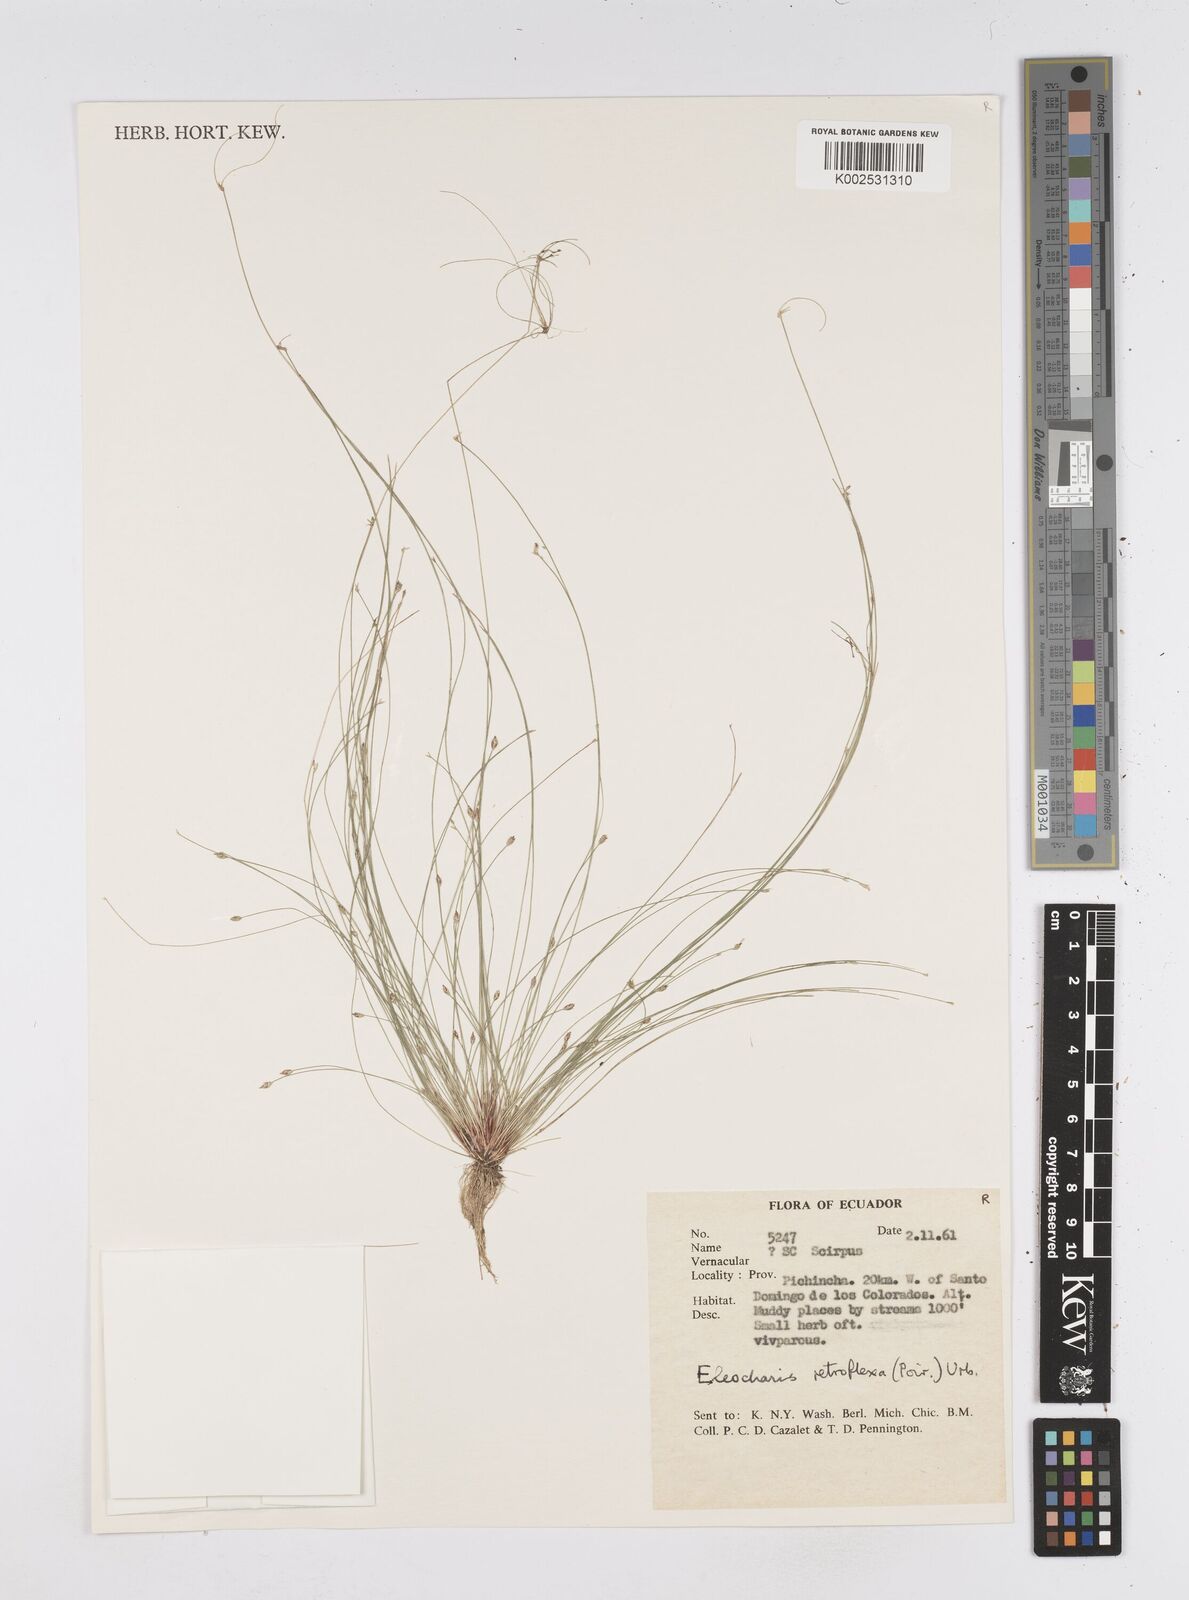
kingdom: Plantae
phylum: Tracheophyta
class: Liliopsida
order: Poales
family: Cyperaceae
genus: Eleocharis
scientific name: Eleocharis retroflexa
